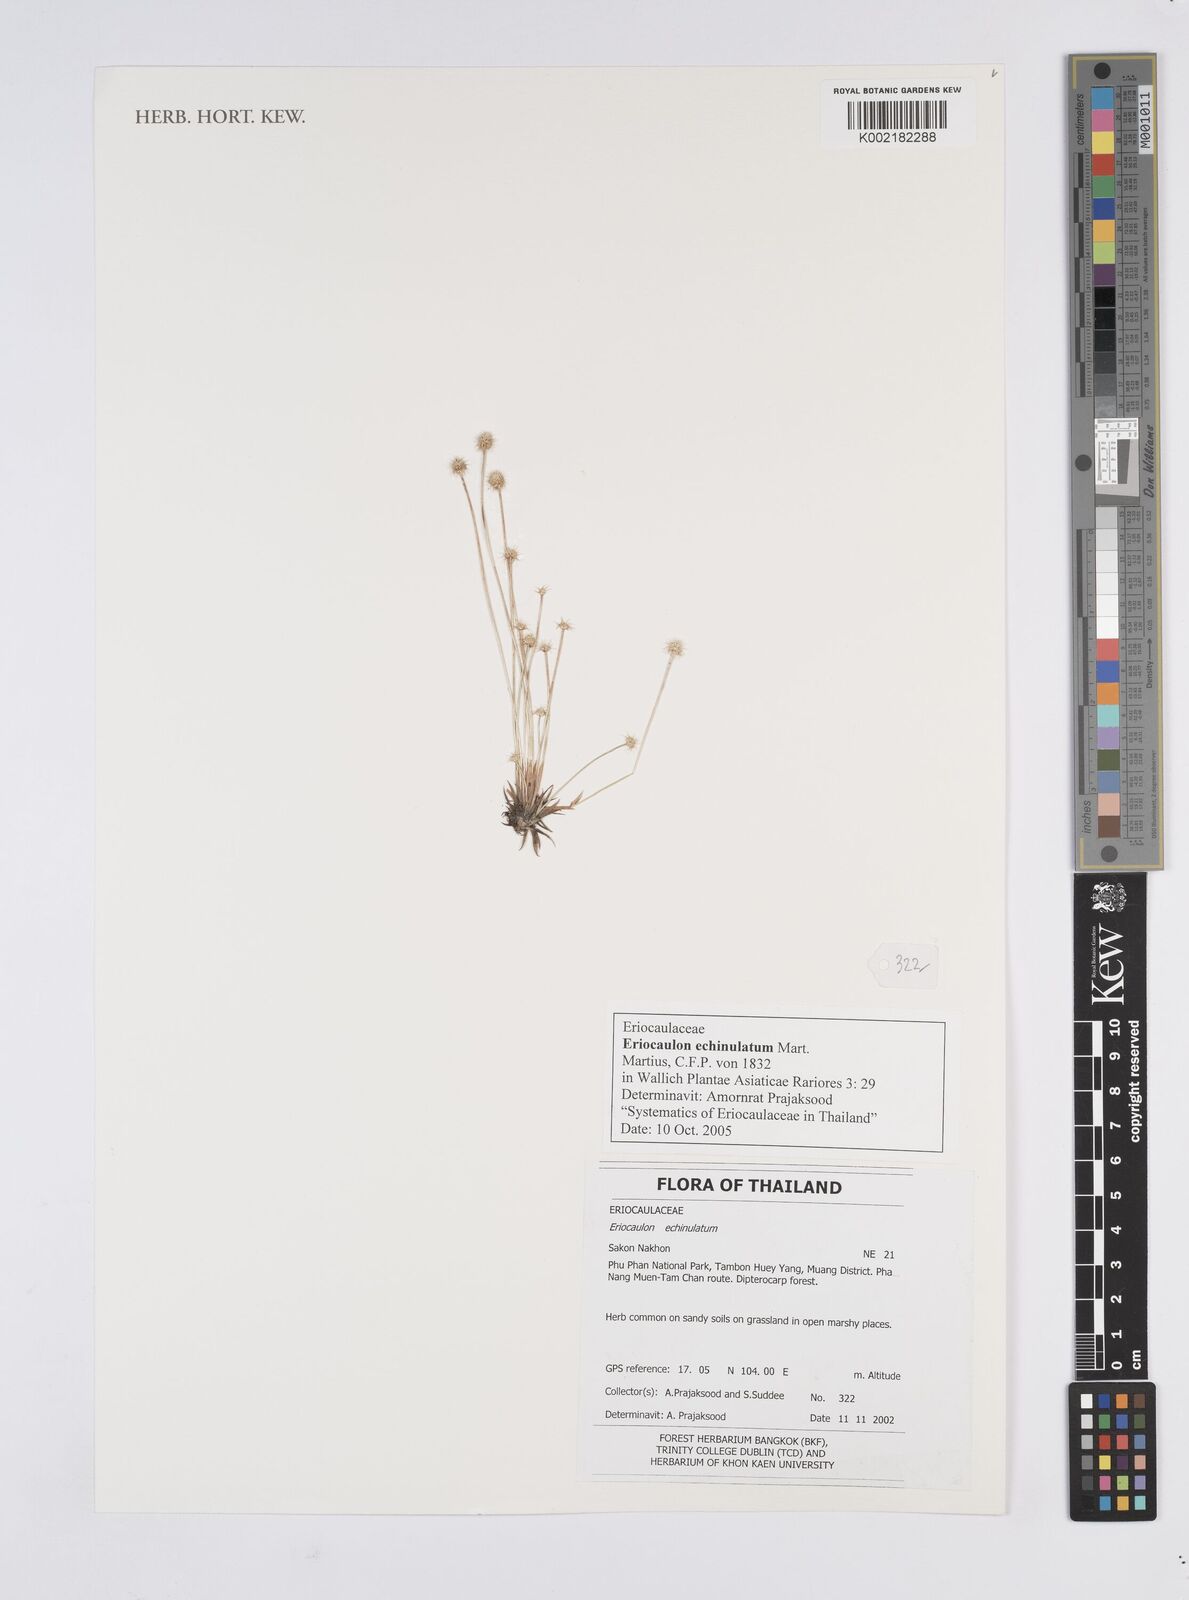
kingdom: Plantae
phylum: Tracheophyta
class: Liliopsida
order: Poales
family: Eriocaulaceae
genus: Eriocaulon
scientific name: Eriocaulon echinulatum
